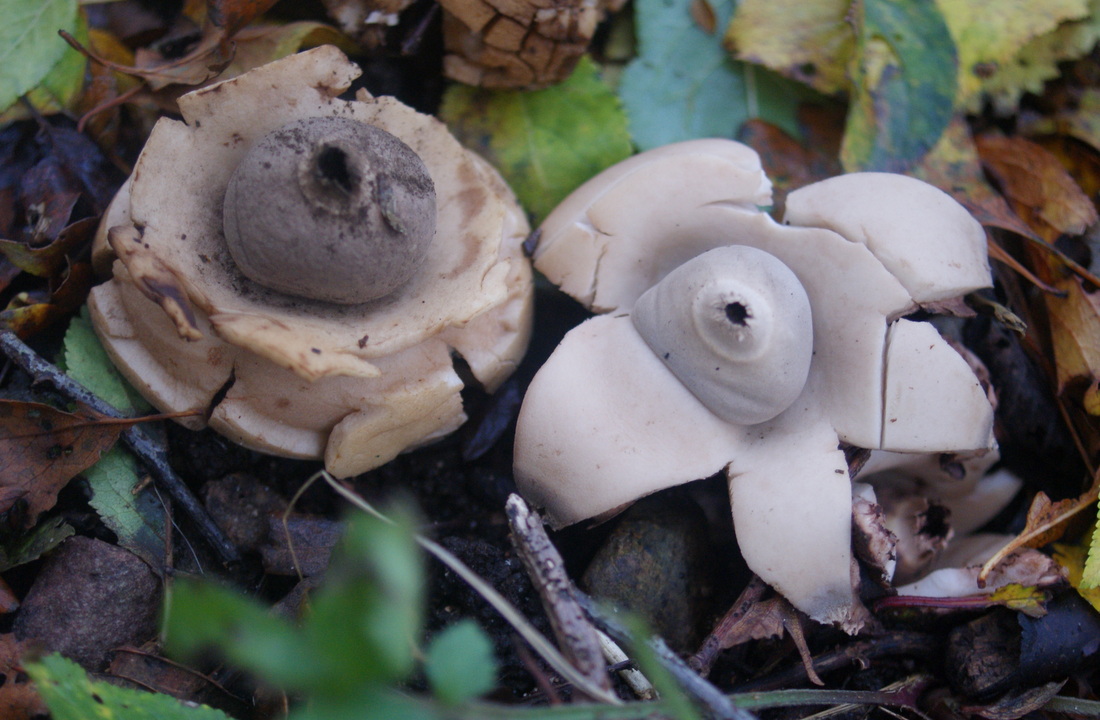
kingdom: Fungi
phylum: Basidiomycota
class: Agaricomycetes
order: Geastrales
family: Geastraceae
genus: Geastrum
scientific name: Geastrum michelianum
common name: kødet stjernebold
